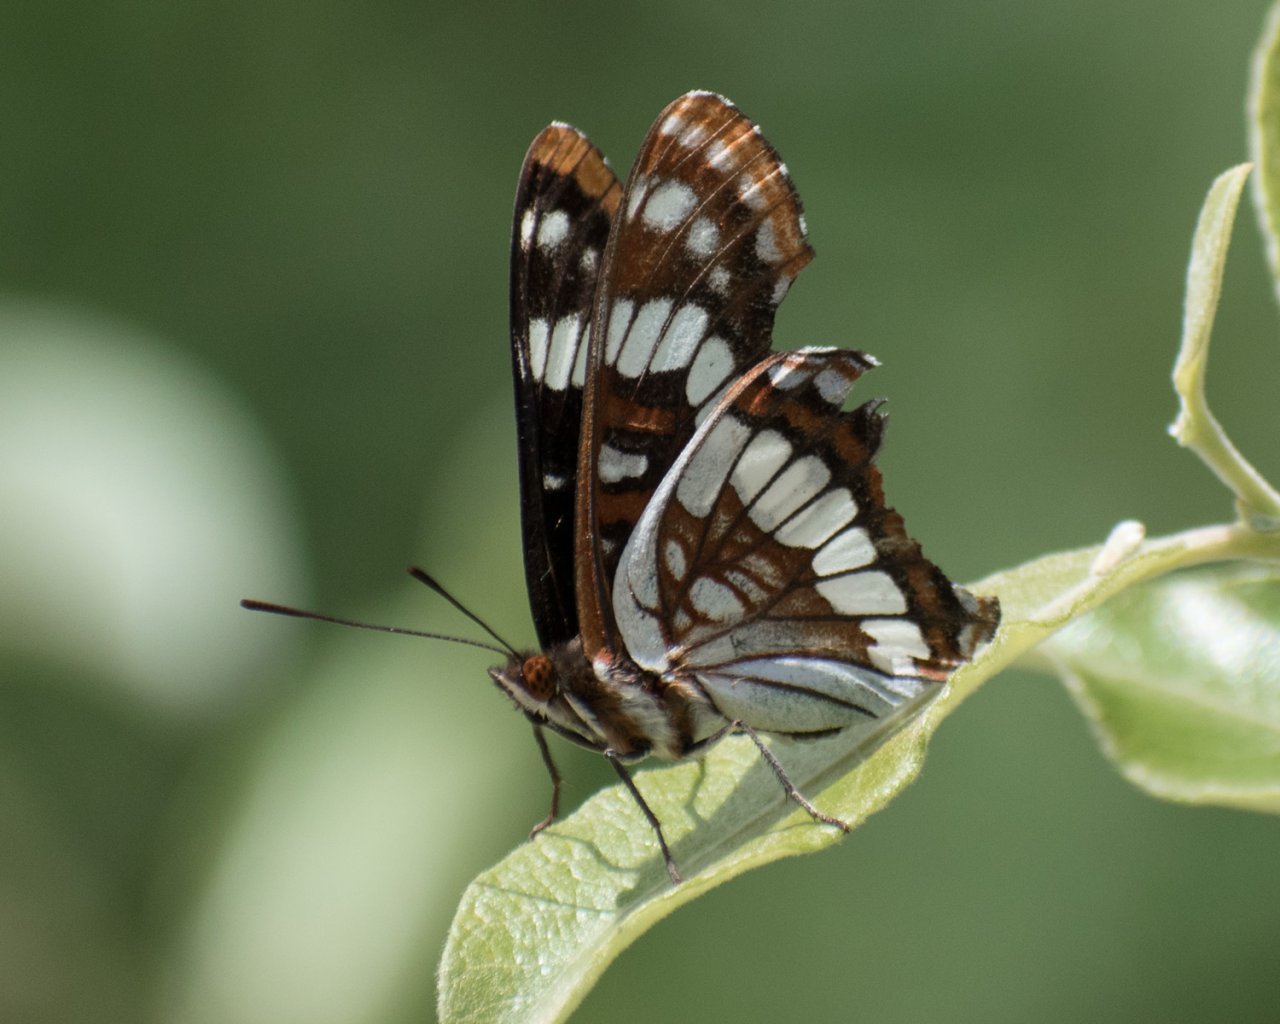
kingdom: Animalia
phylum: Arthropoda
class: Insecta
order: Lepidoptera
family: Nymphalidae
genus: Limenitis
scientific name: Limenitis lorquini
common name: Lorquin's Admiral
